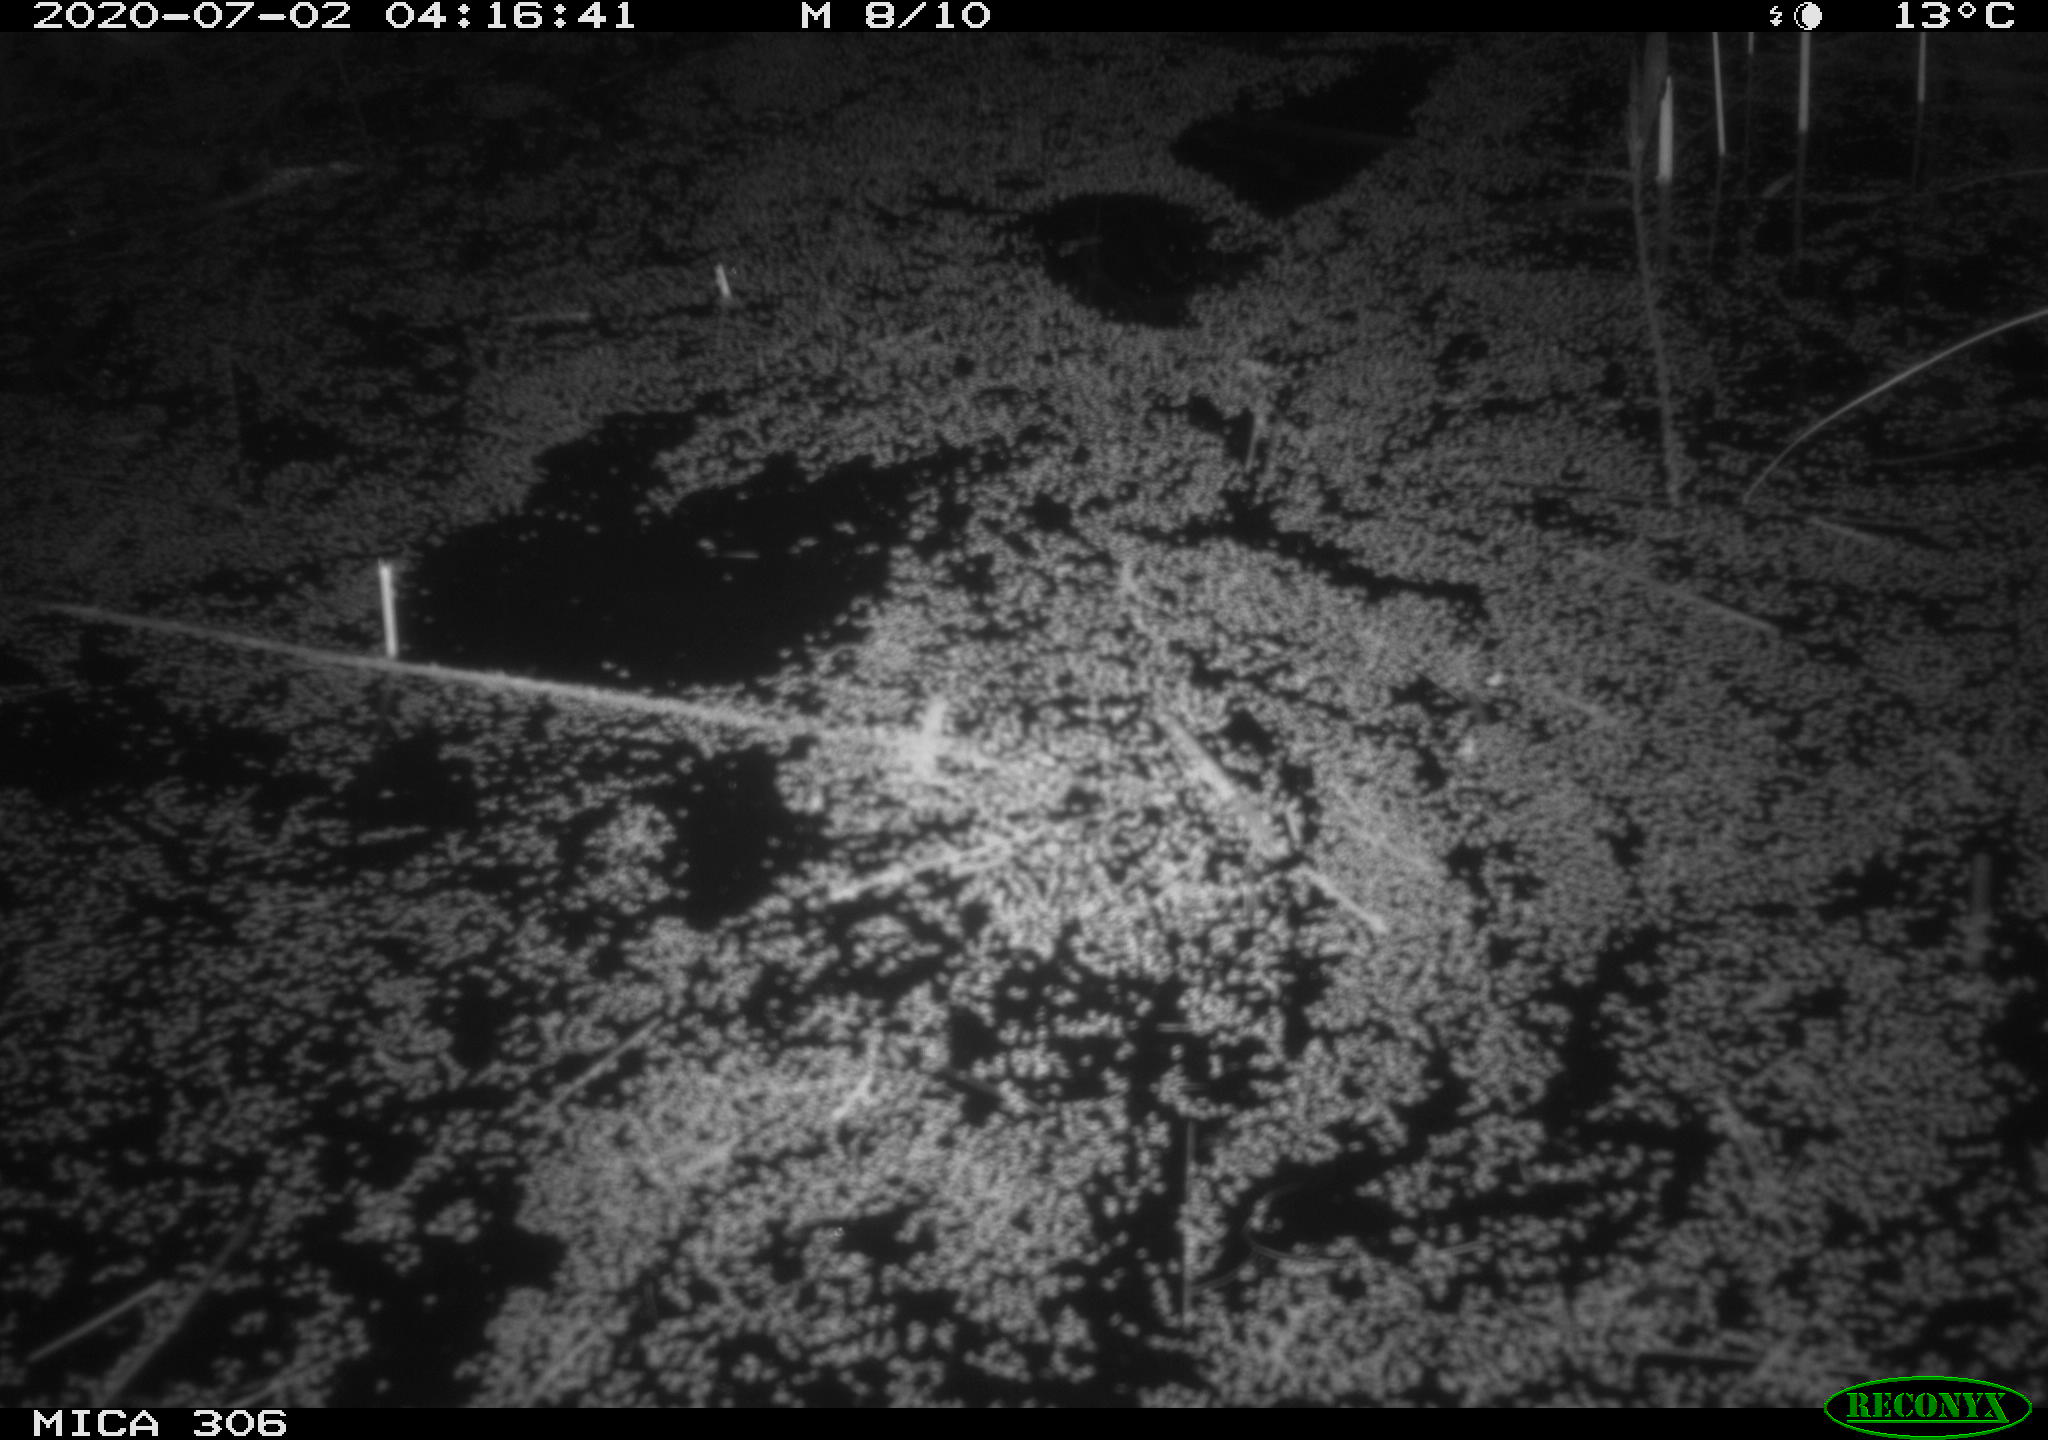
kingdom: Animalia
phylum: Chordata
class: Mammalia
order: Rodentia
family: Muridae
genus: Rattus
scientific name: Rattus norvegicus
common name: Brown rat
